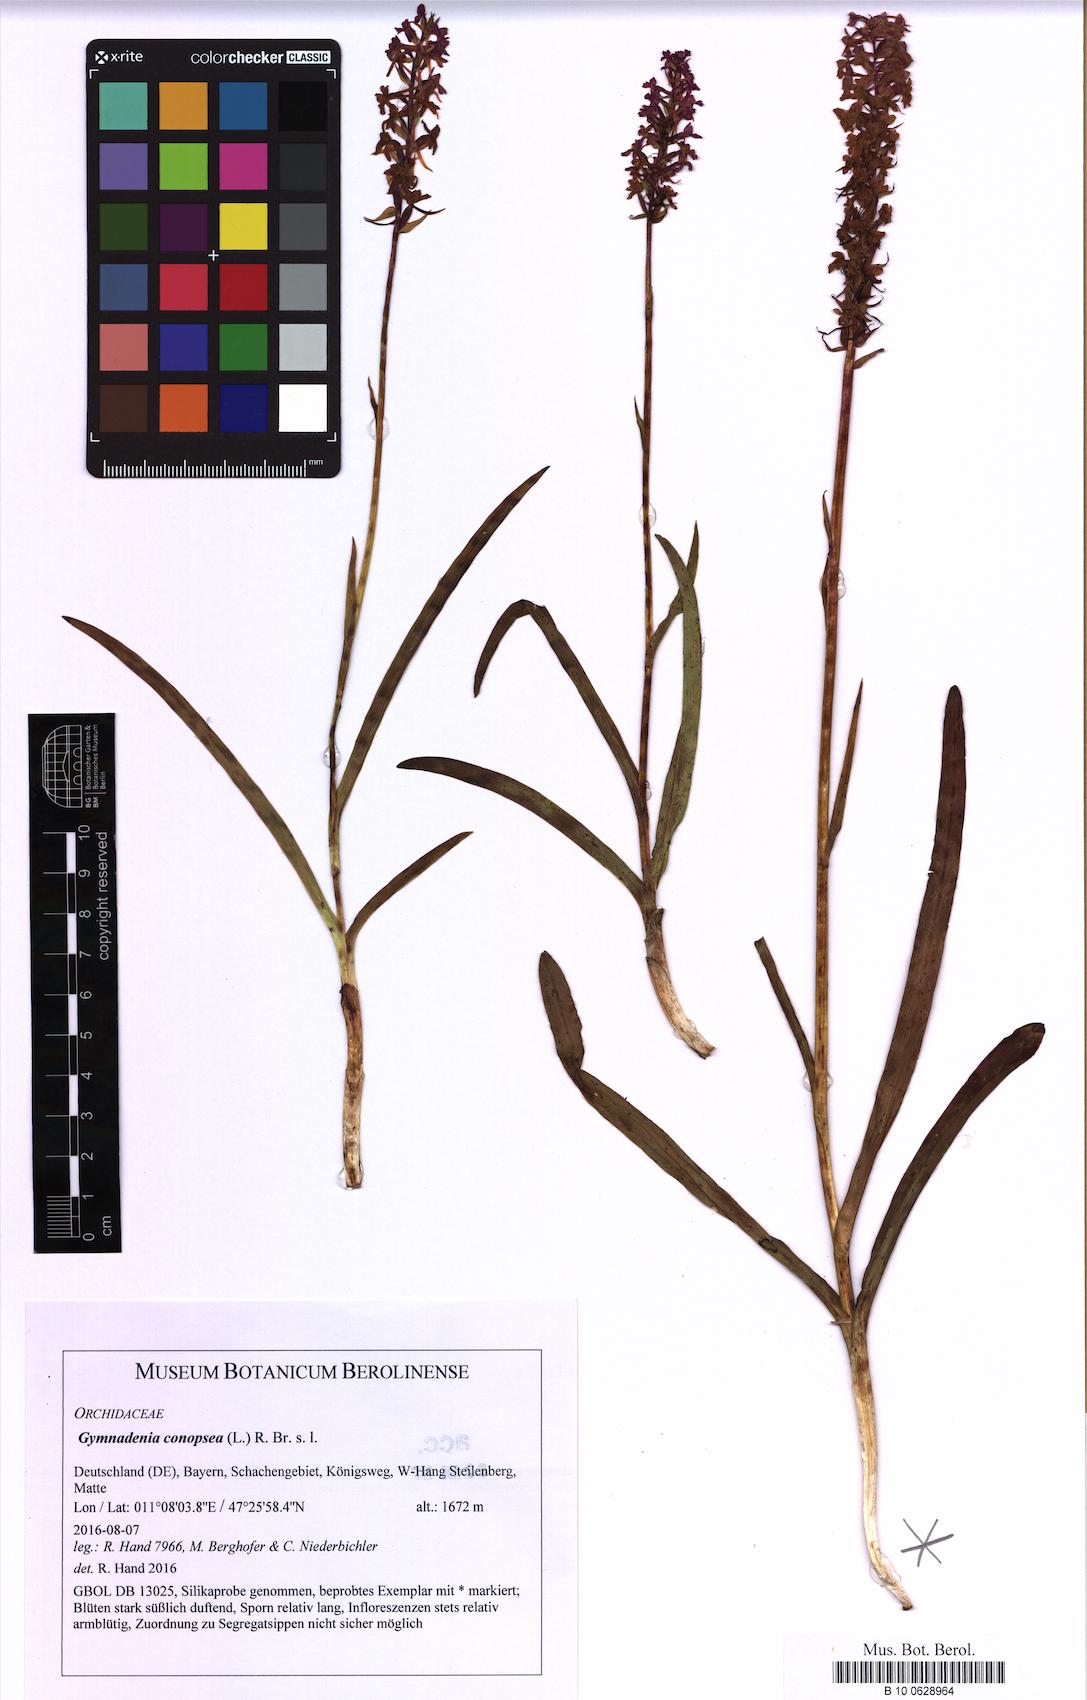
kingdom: Plantae
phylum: Tracheophyta
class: Liliopsida
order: Asparagales
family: Orchidaceae
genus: Gymnadenia
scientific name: Gymnadenia conopsea
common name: Fragrant orchid
